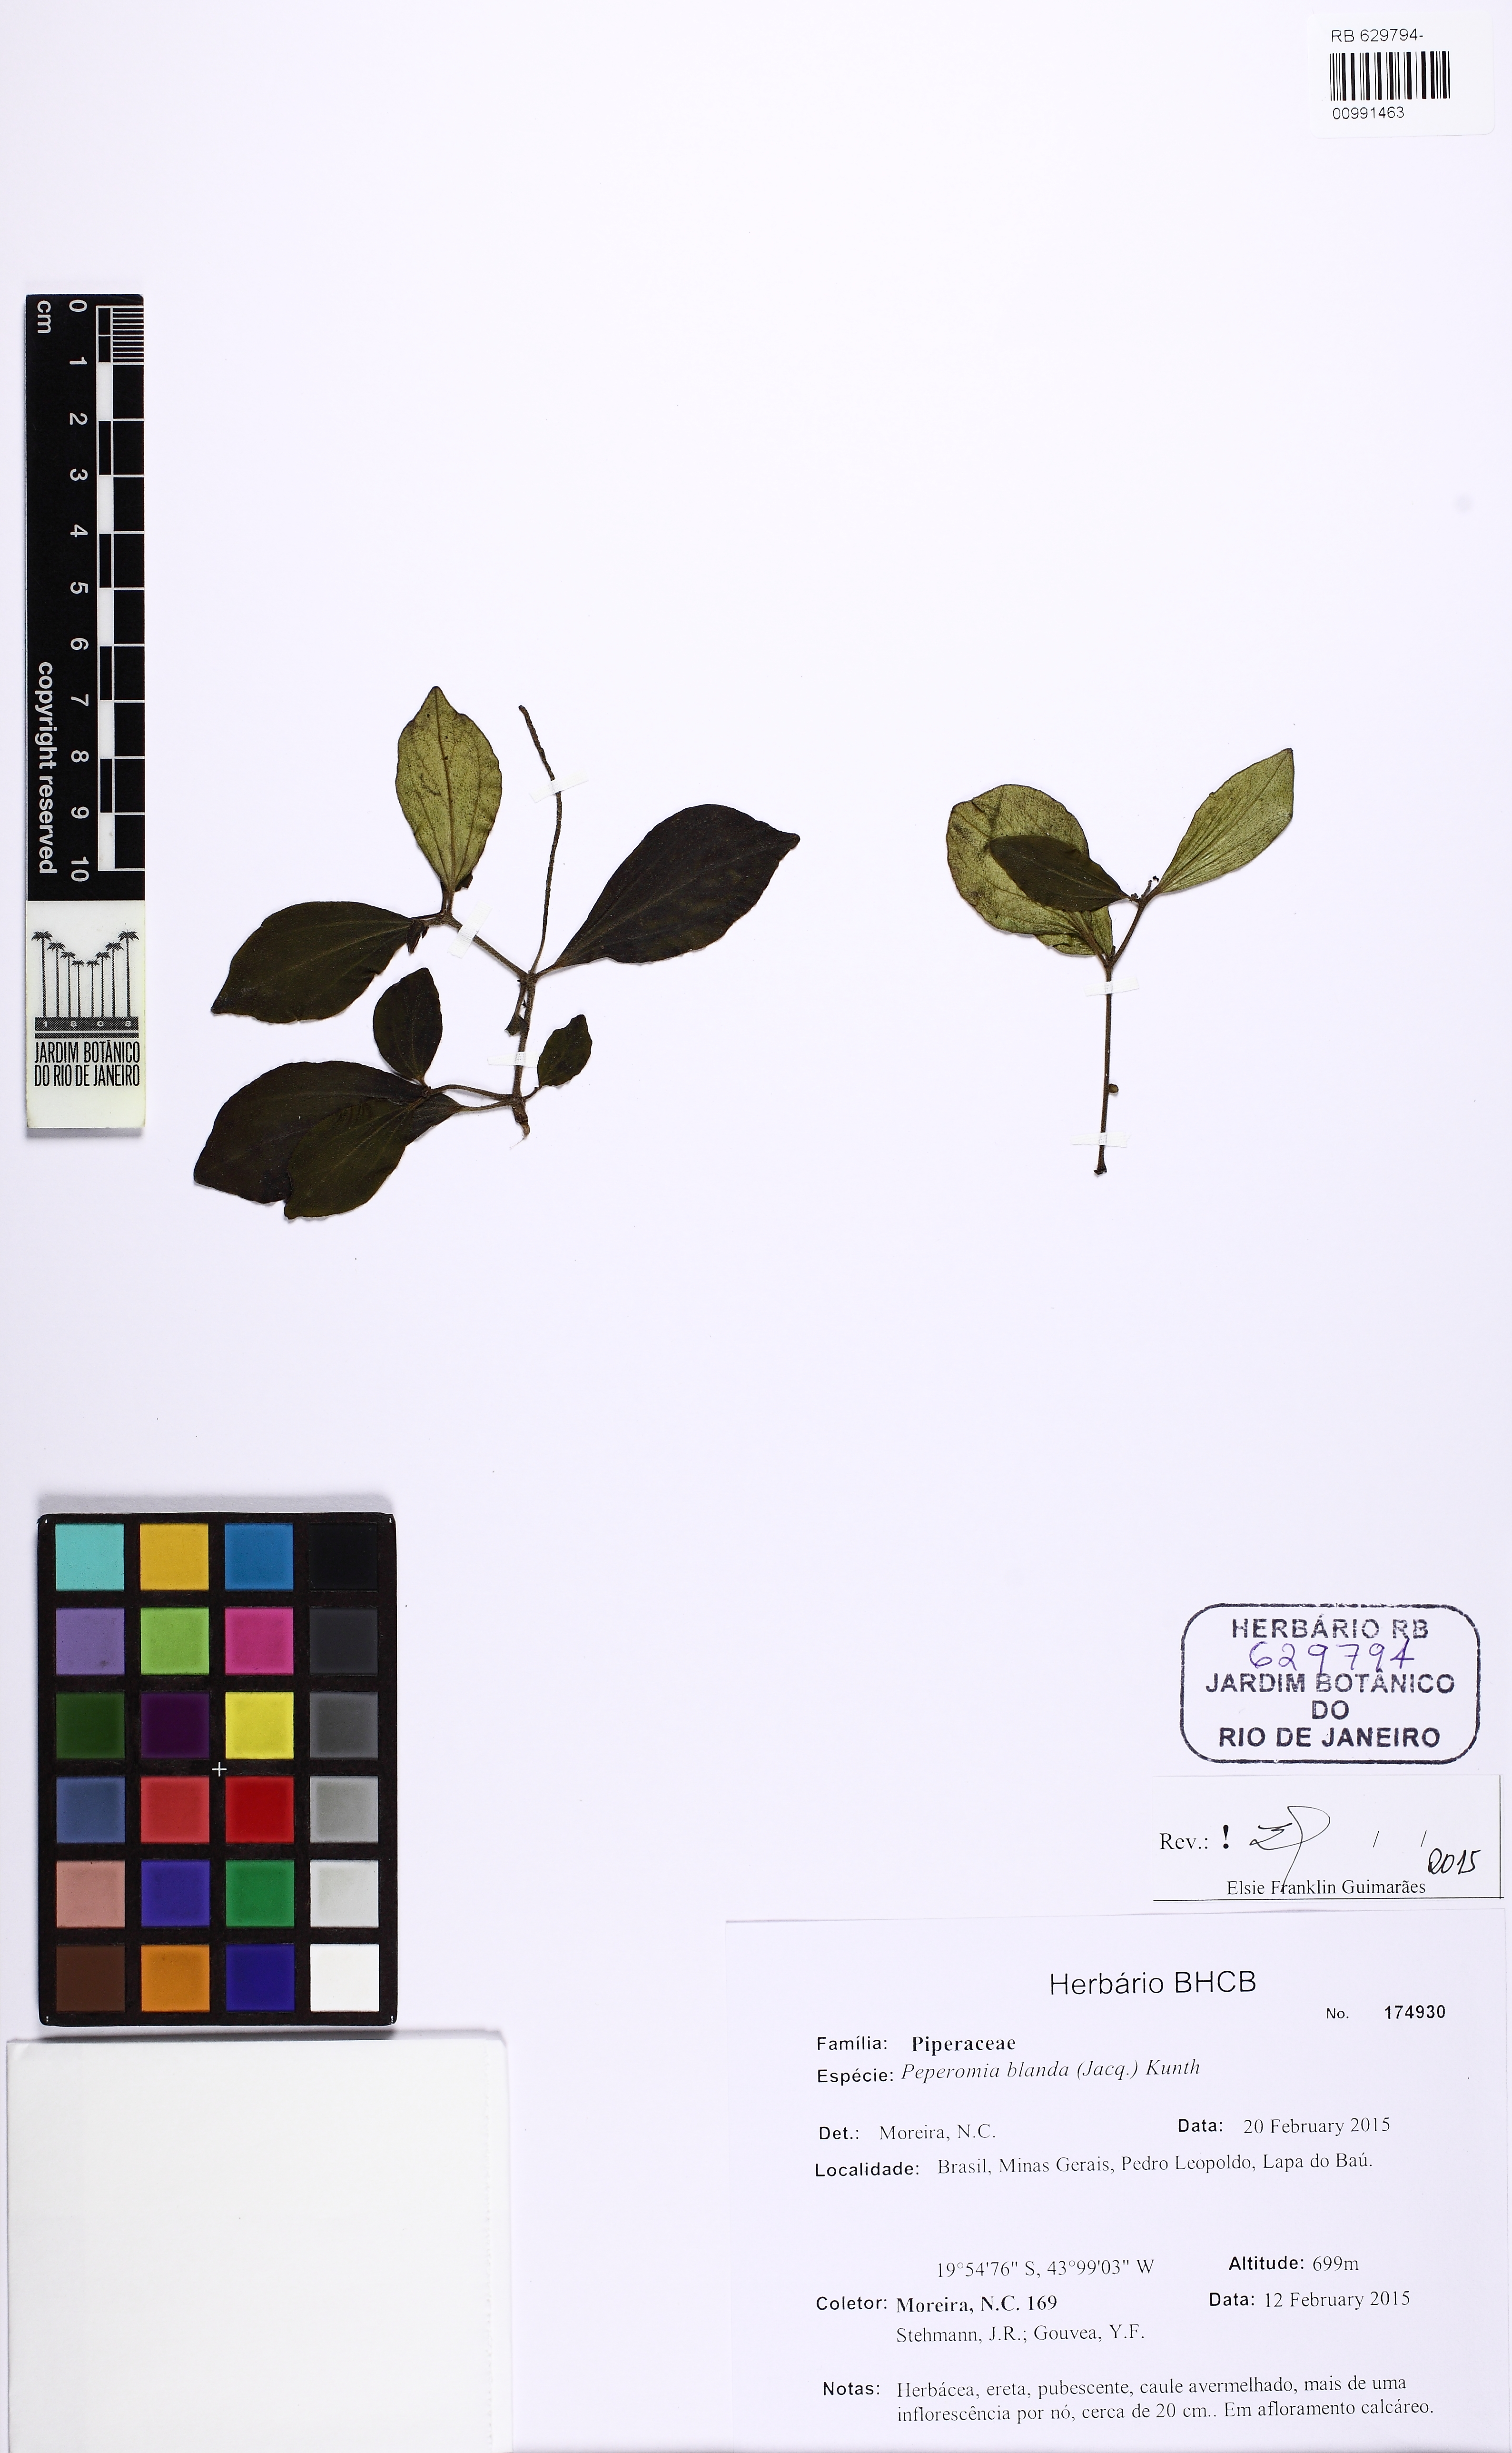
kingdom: Plantae
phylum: Tracheophyta
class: Magnoliopsida
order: Piperales
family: Piperaceae
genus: Peperomia
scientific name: Peperomia blanda
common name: Arid-land peperomia
